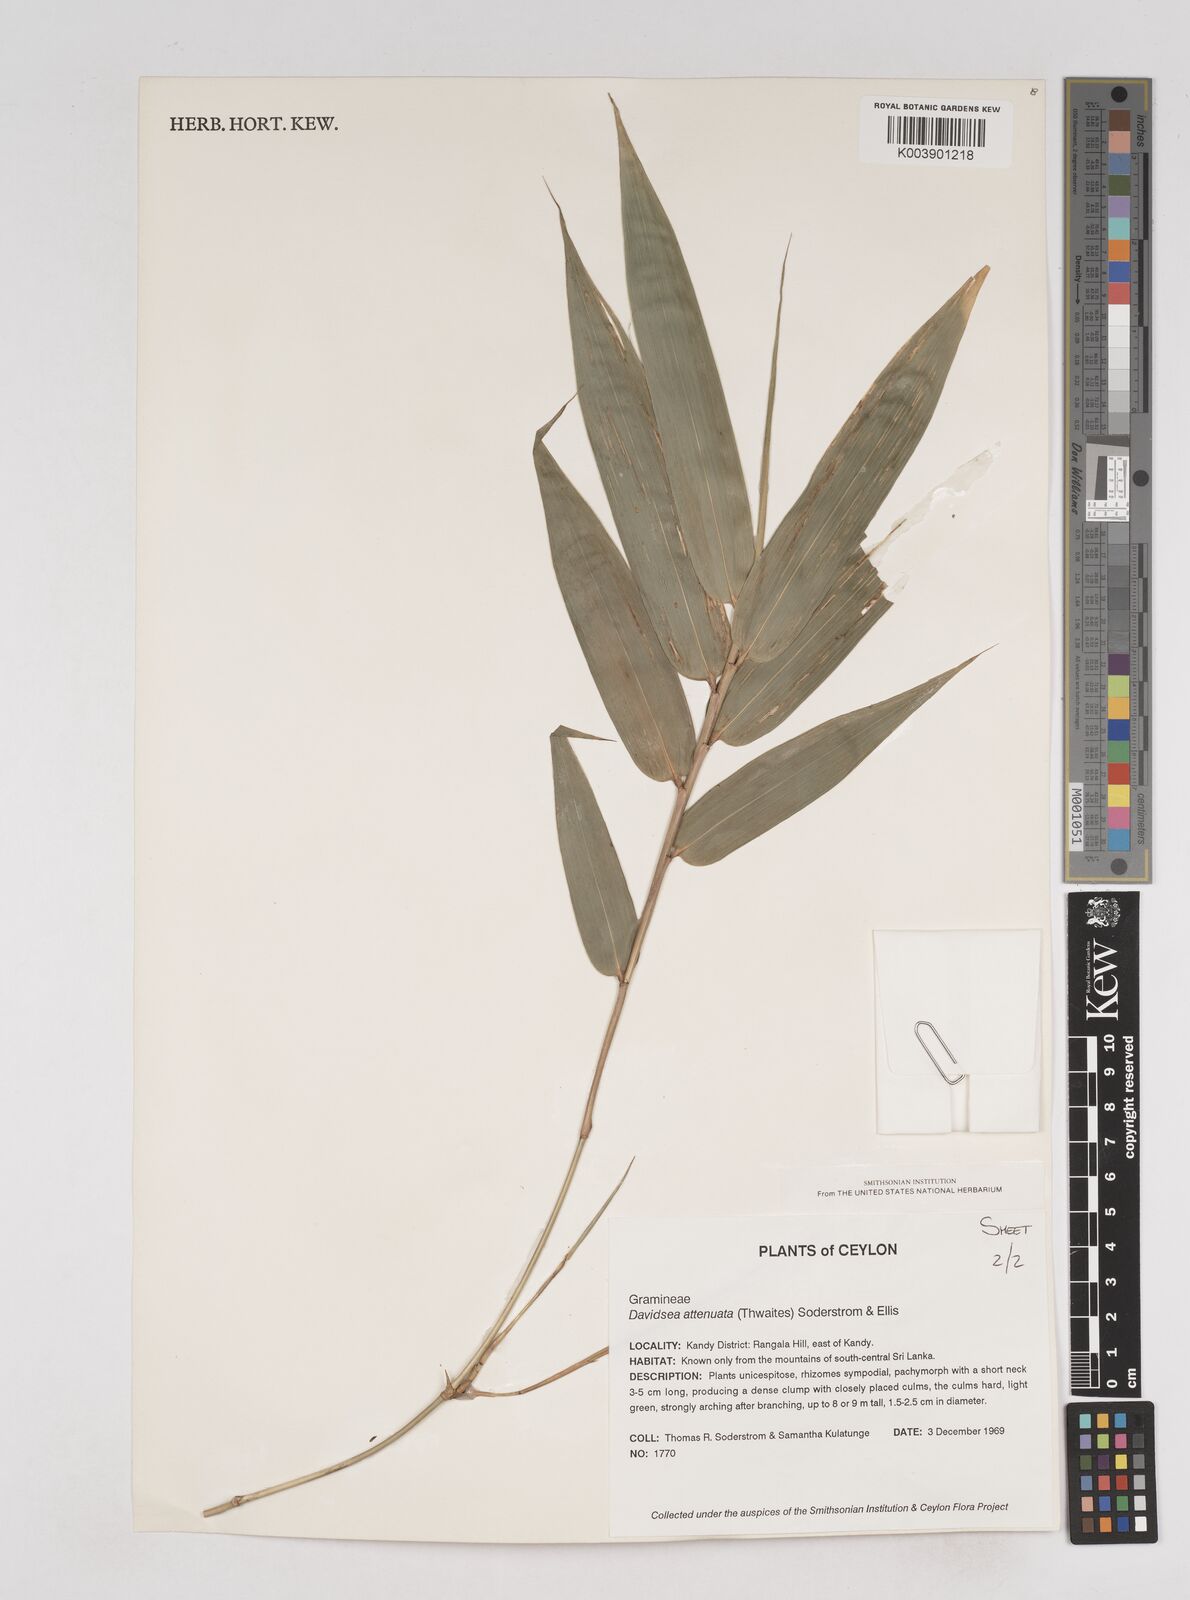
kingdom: Plantae
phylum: Tracheophyta
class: Liliopsida
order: Poales
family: Poaceae
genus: Davidsea
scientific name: Davidsea attenuata
